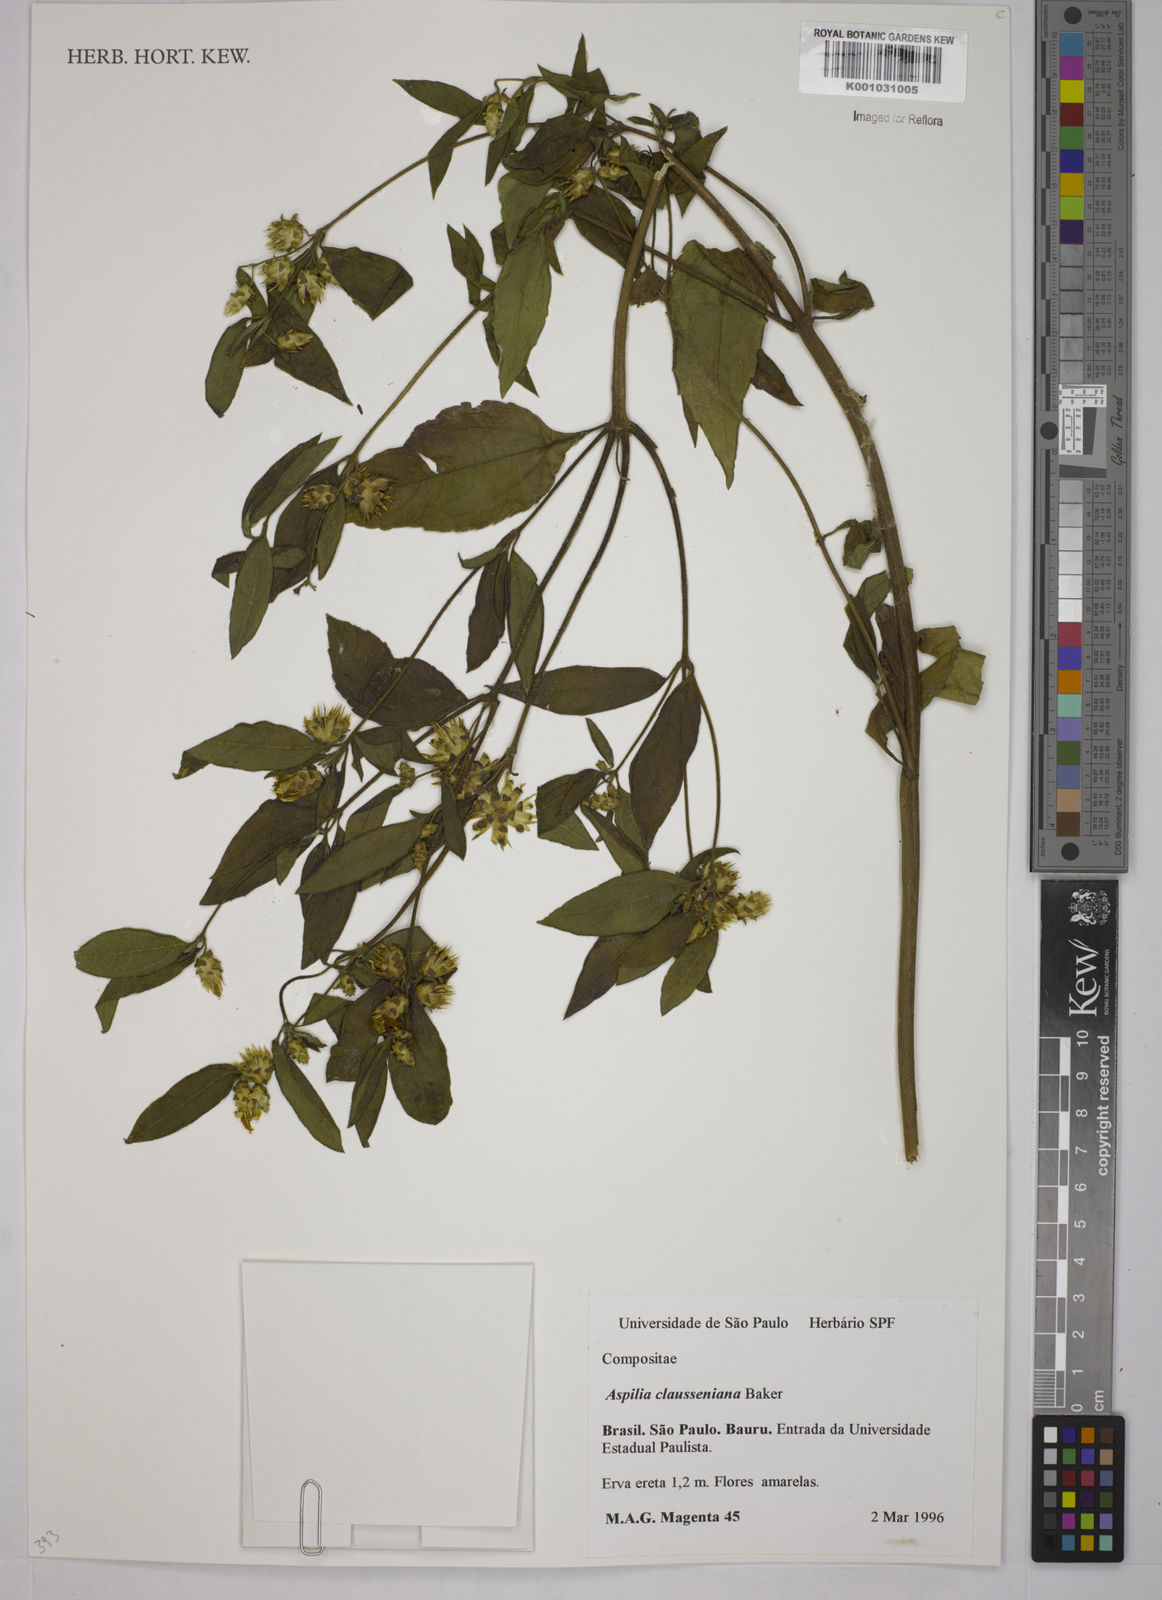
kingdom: Plantae
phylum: Tracheophyta
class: Magnoliopsida
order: Asterales
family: Asteraceae
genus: Aspilia
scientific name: Aspilia clausseniana
